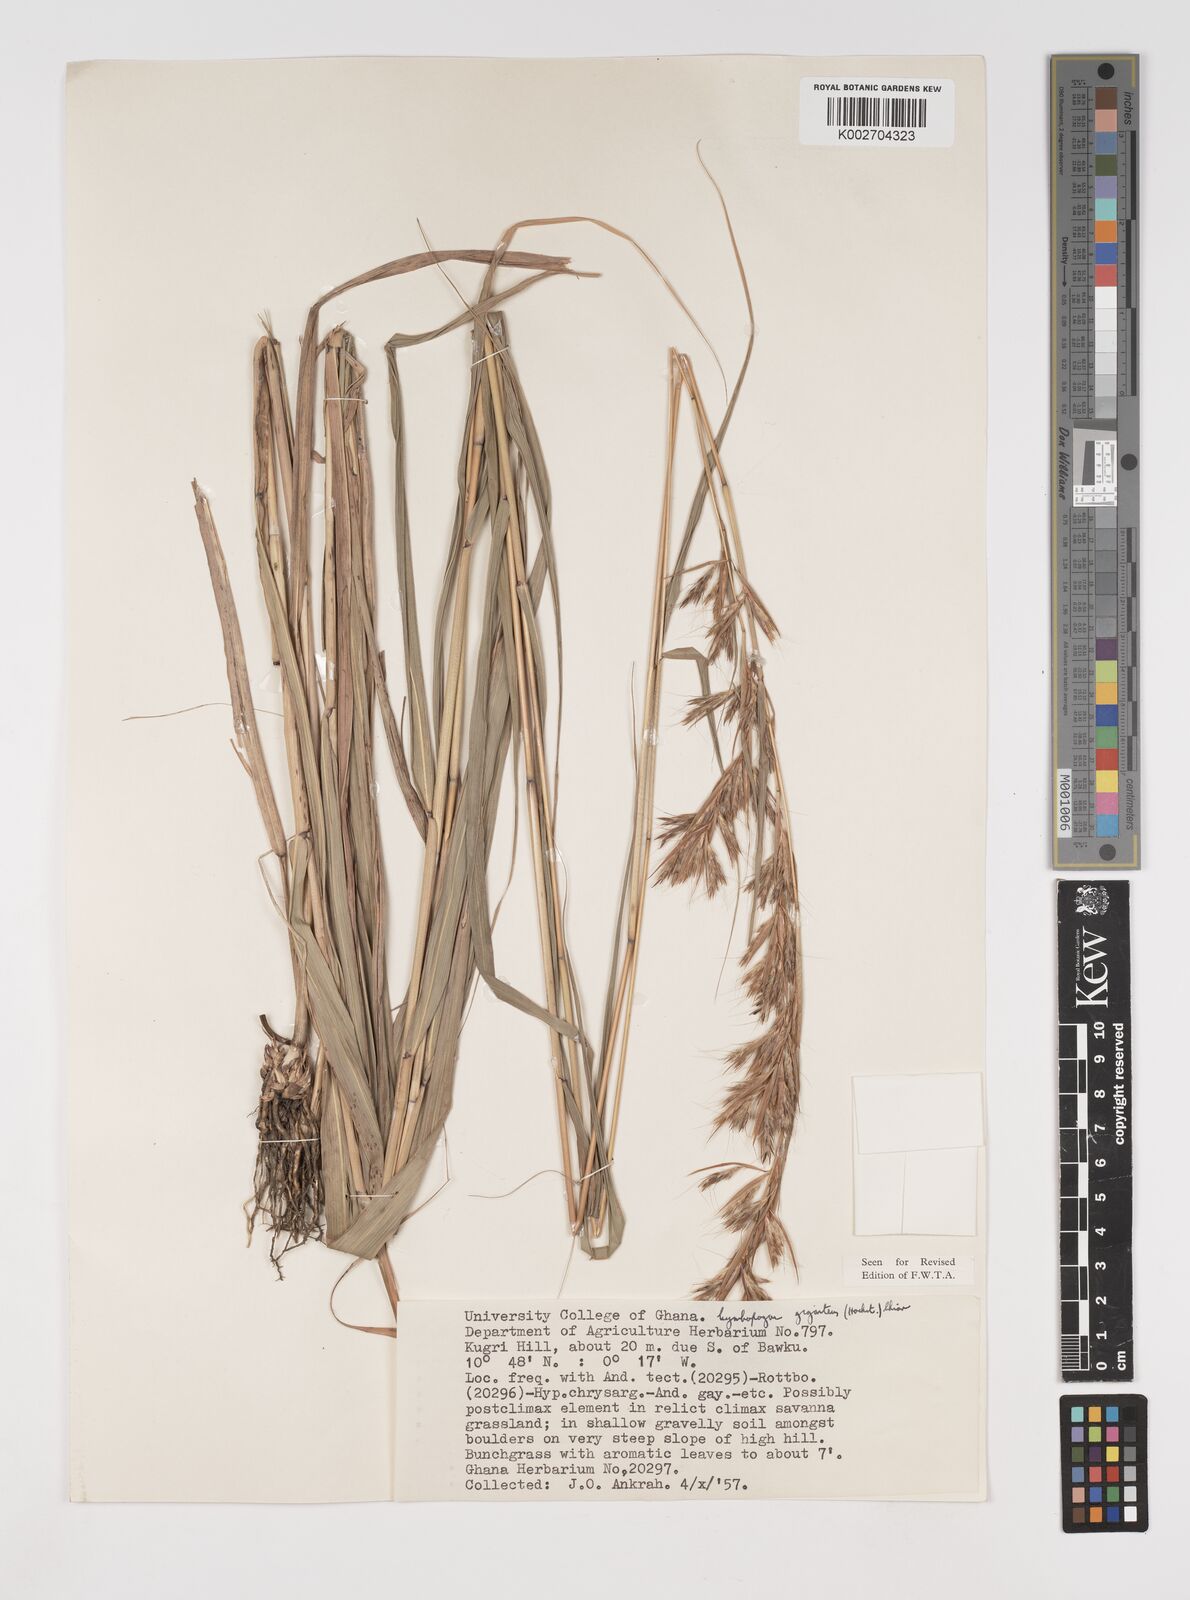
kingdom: Plantae
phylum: Tracheophyta
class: Liliopsida
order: Poales
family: Poaceae
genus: Cymbopogon
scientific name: Cymbopogon giganteus
